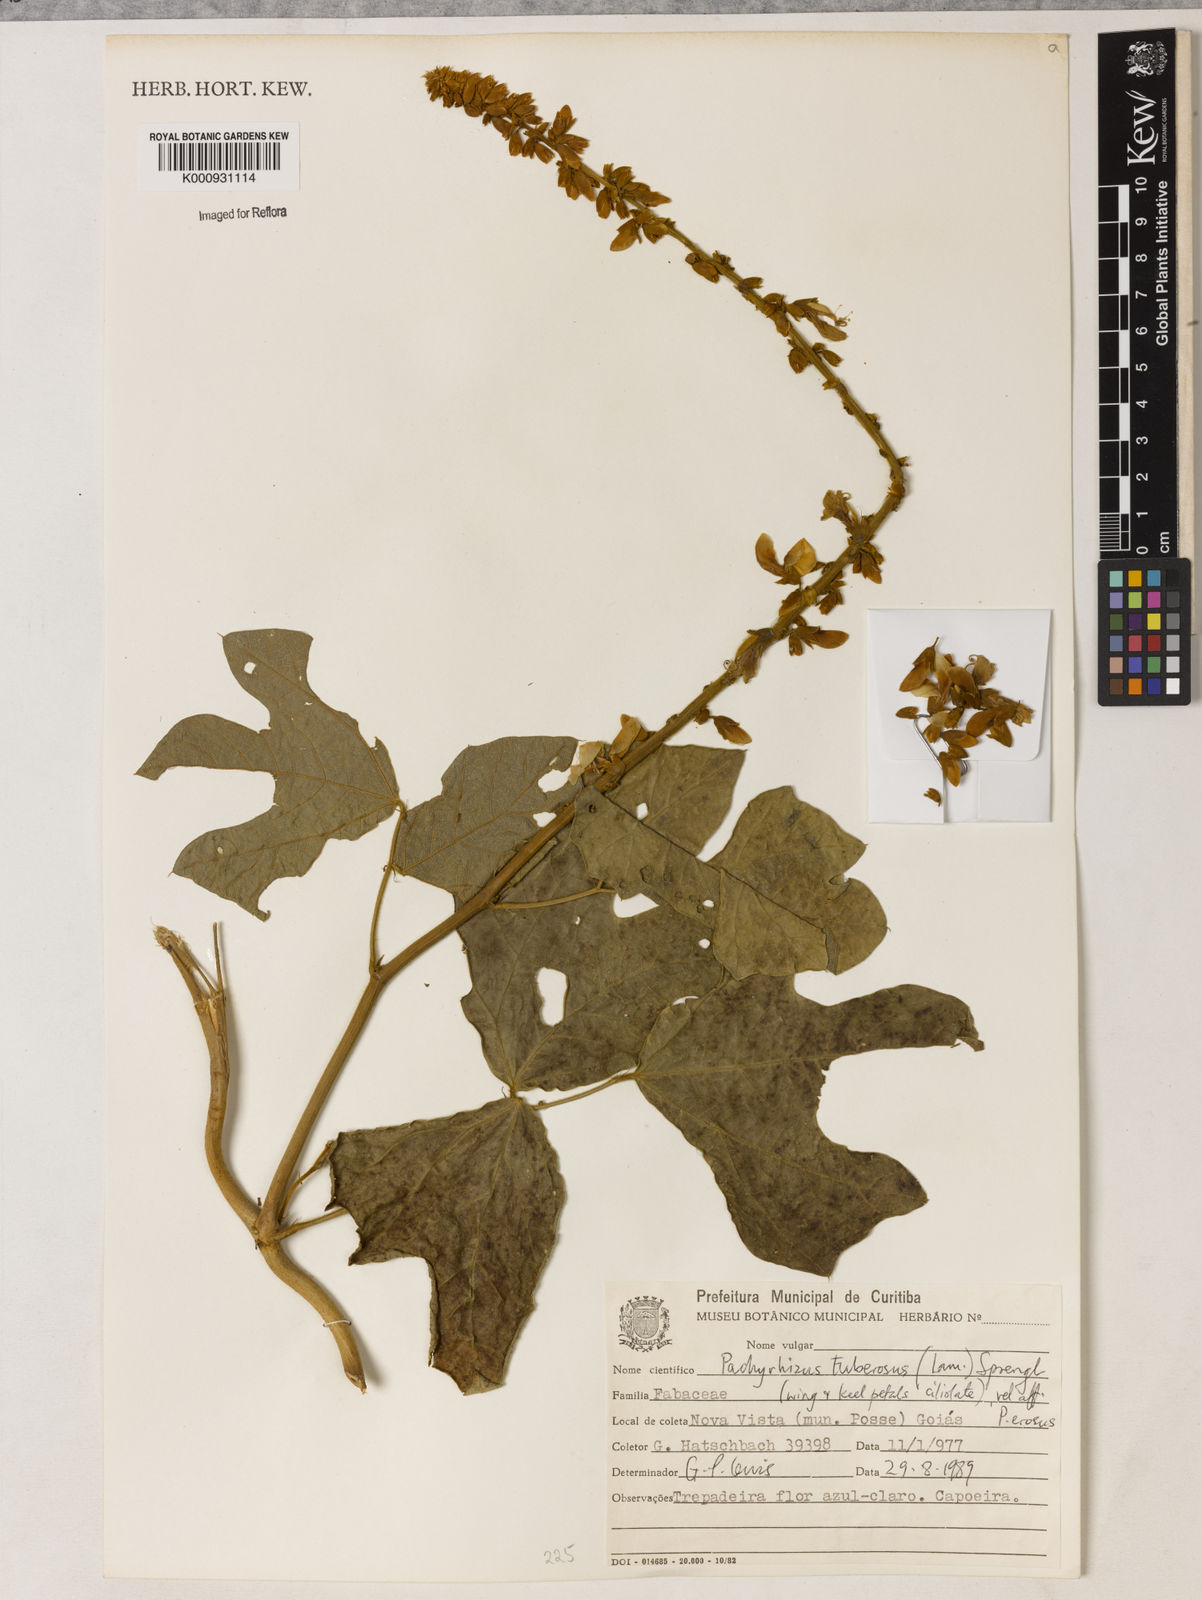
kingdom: Plantae
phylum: Tracheophyta
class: Magnoliopsida
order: Fabales
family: Fabaceae
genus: Pachyrhizus
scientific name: Pachyrhizus tuberosus
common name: Yam-bean
